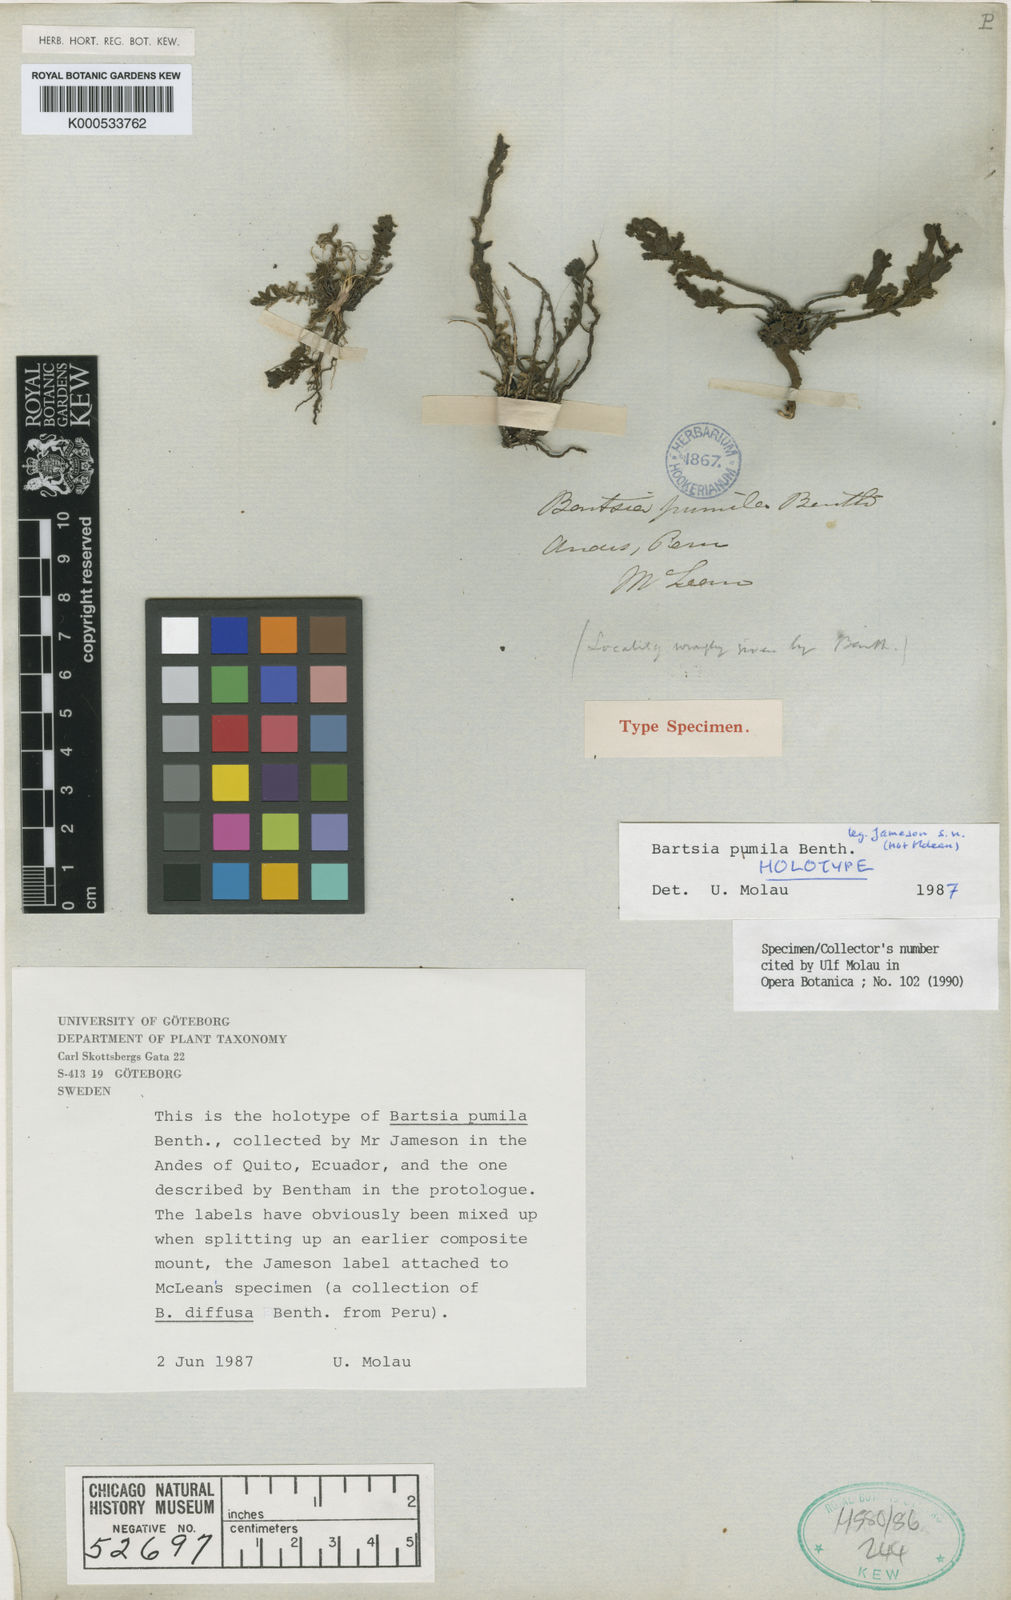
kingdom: Plantae
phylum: Tracheophyta
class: Magnoliopsida
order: Lamiales
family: Orobanchaceae
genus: Neobartsia
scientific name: Neobartsia pumila
